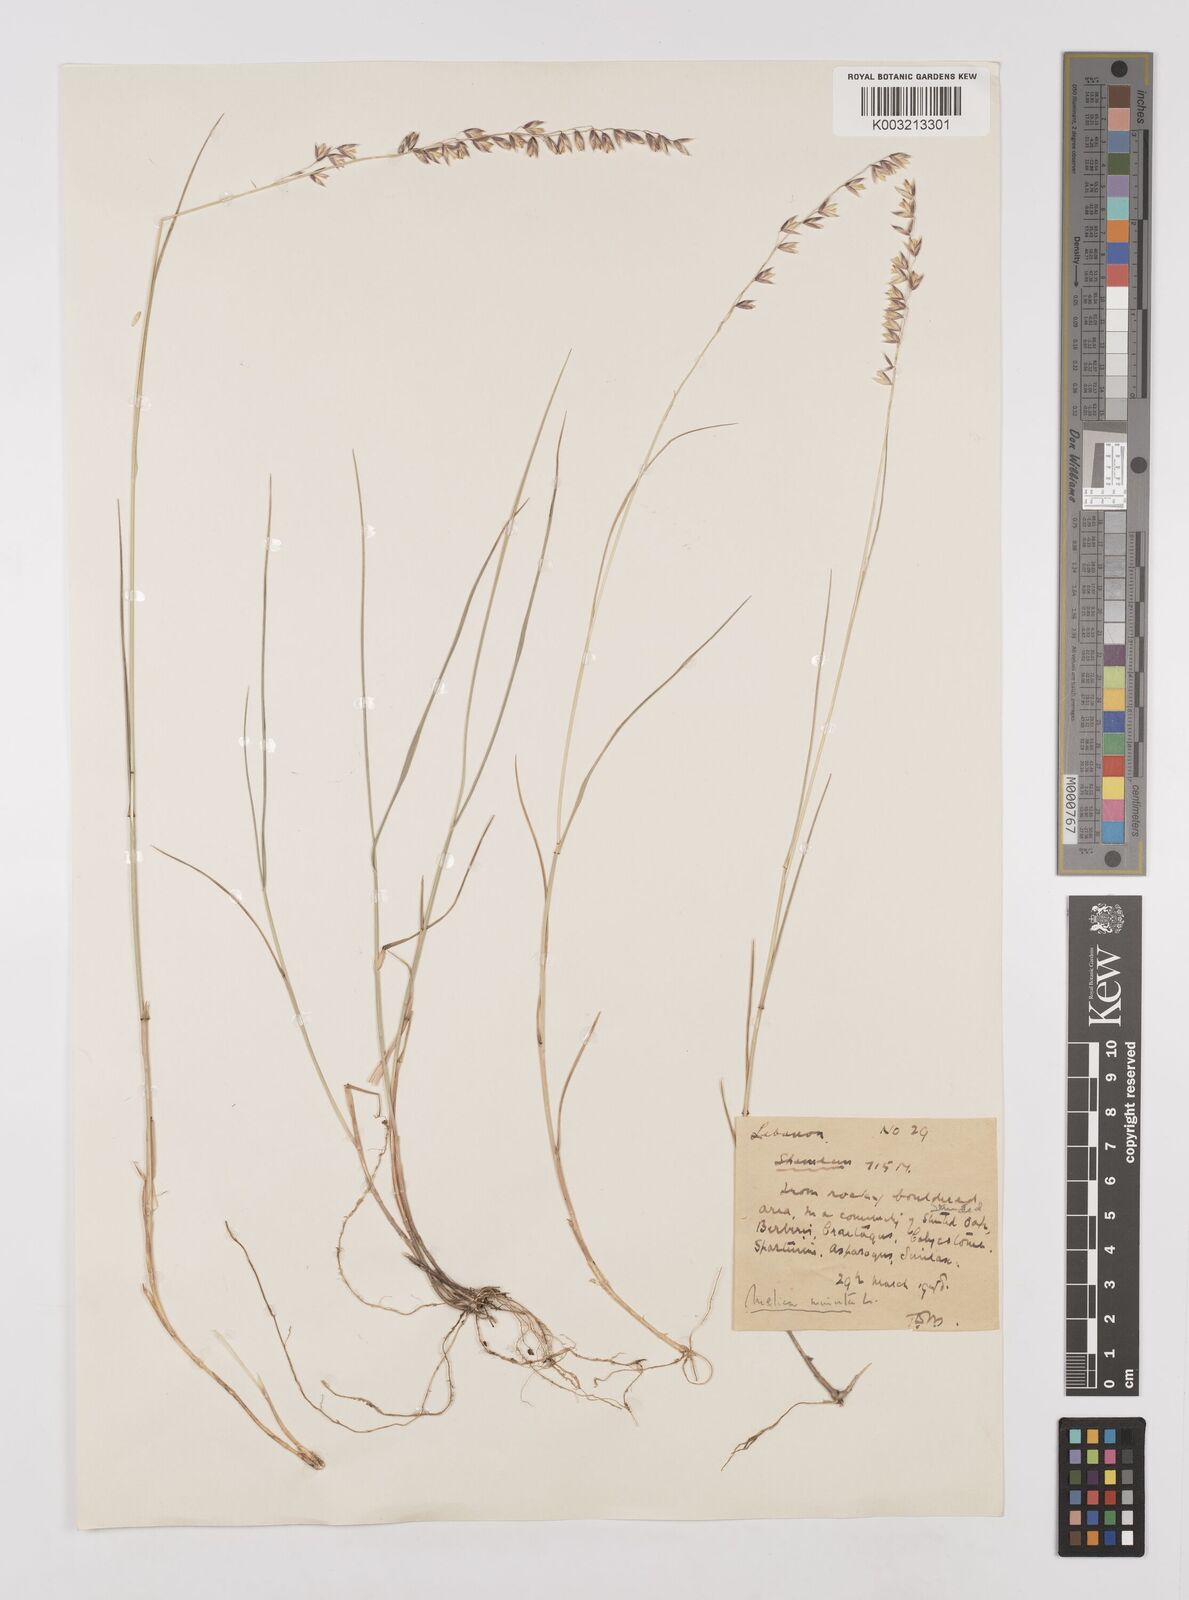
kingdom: Plantae
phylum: Tracheophyta
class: Liliopsida
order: Poales
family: Poaceae
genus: Melica
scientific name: Melica minuta
